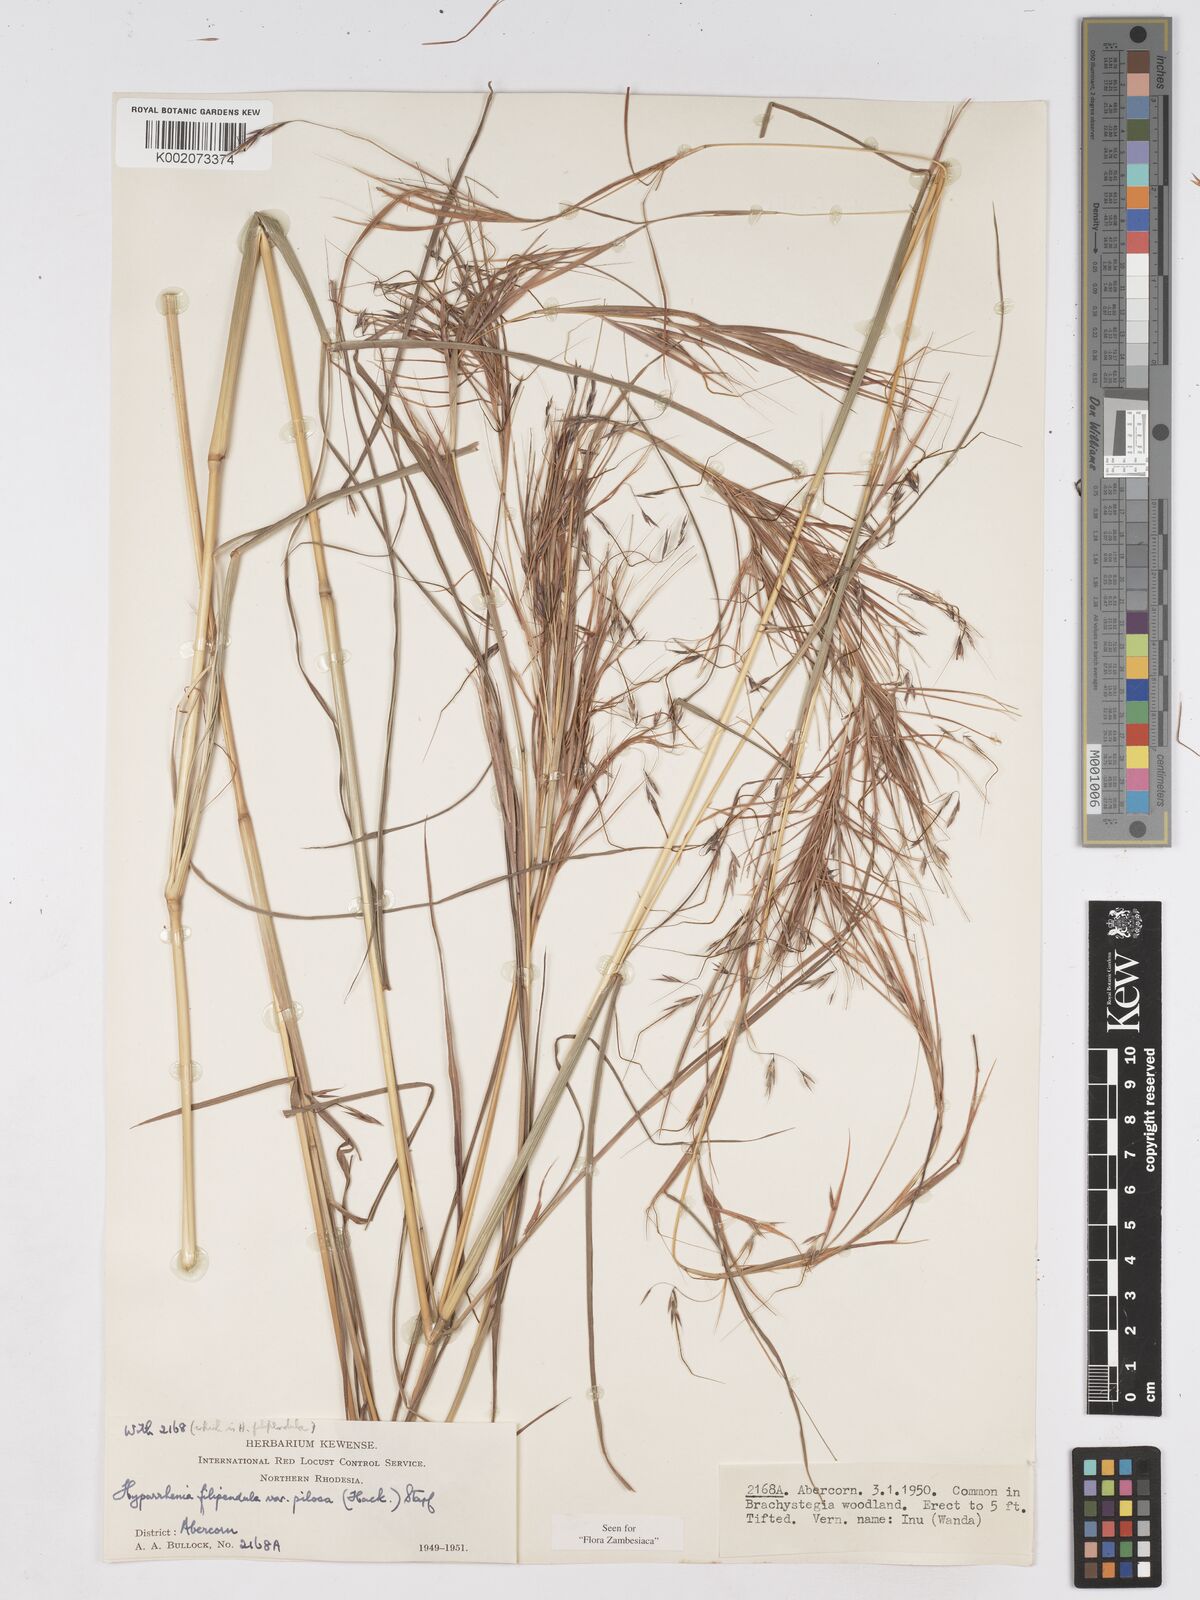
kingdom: Plantae
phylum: Tracheophyta
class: Liliopsida
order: Poales
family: Poaceae
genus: Hyparrhenia
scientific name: Hyparrhenia filipendula
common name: Tambookie grass
